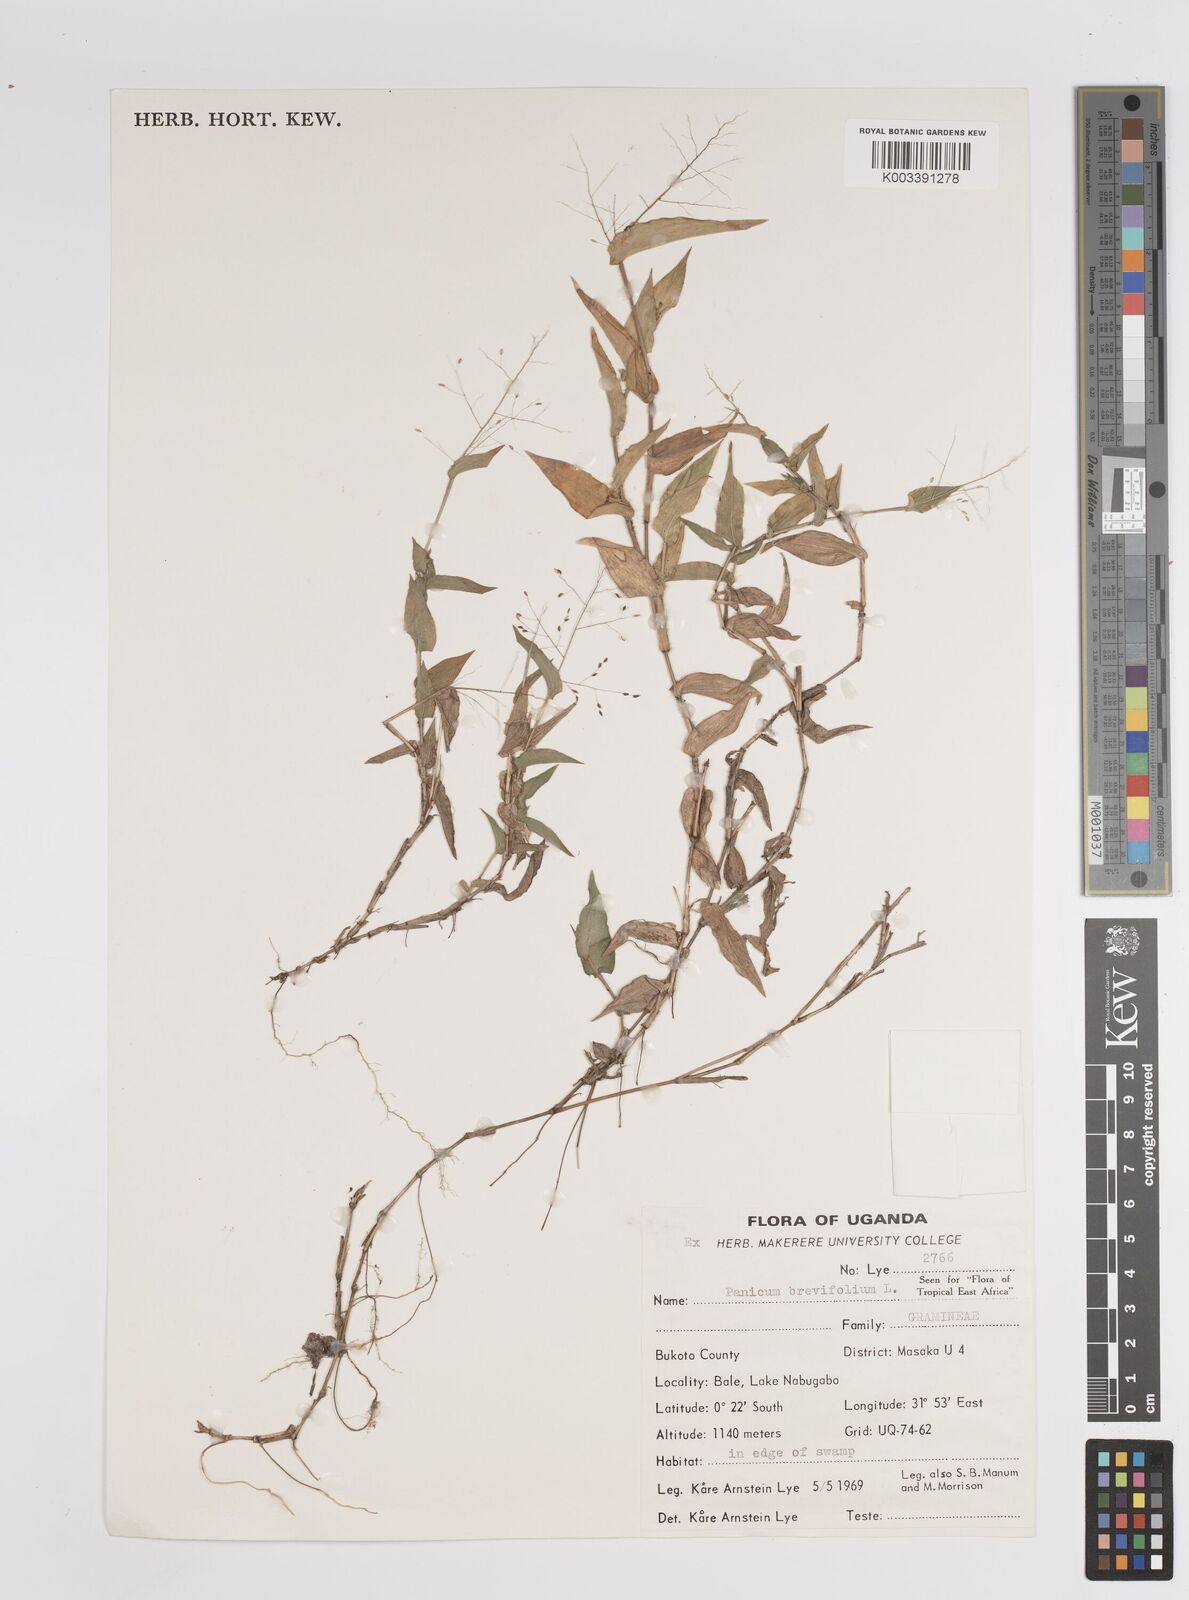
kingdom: Plantae
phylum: Tracheophyta
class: Liliopsida
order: Poales
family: Poaceae
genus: Panicum
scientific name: Panicum brevifolium
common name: Shortleaf panic grass
